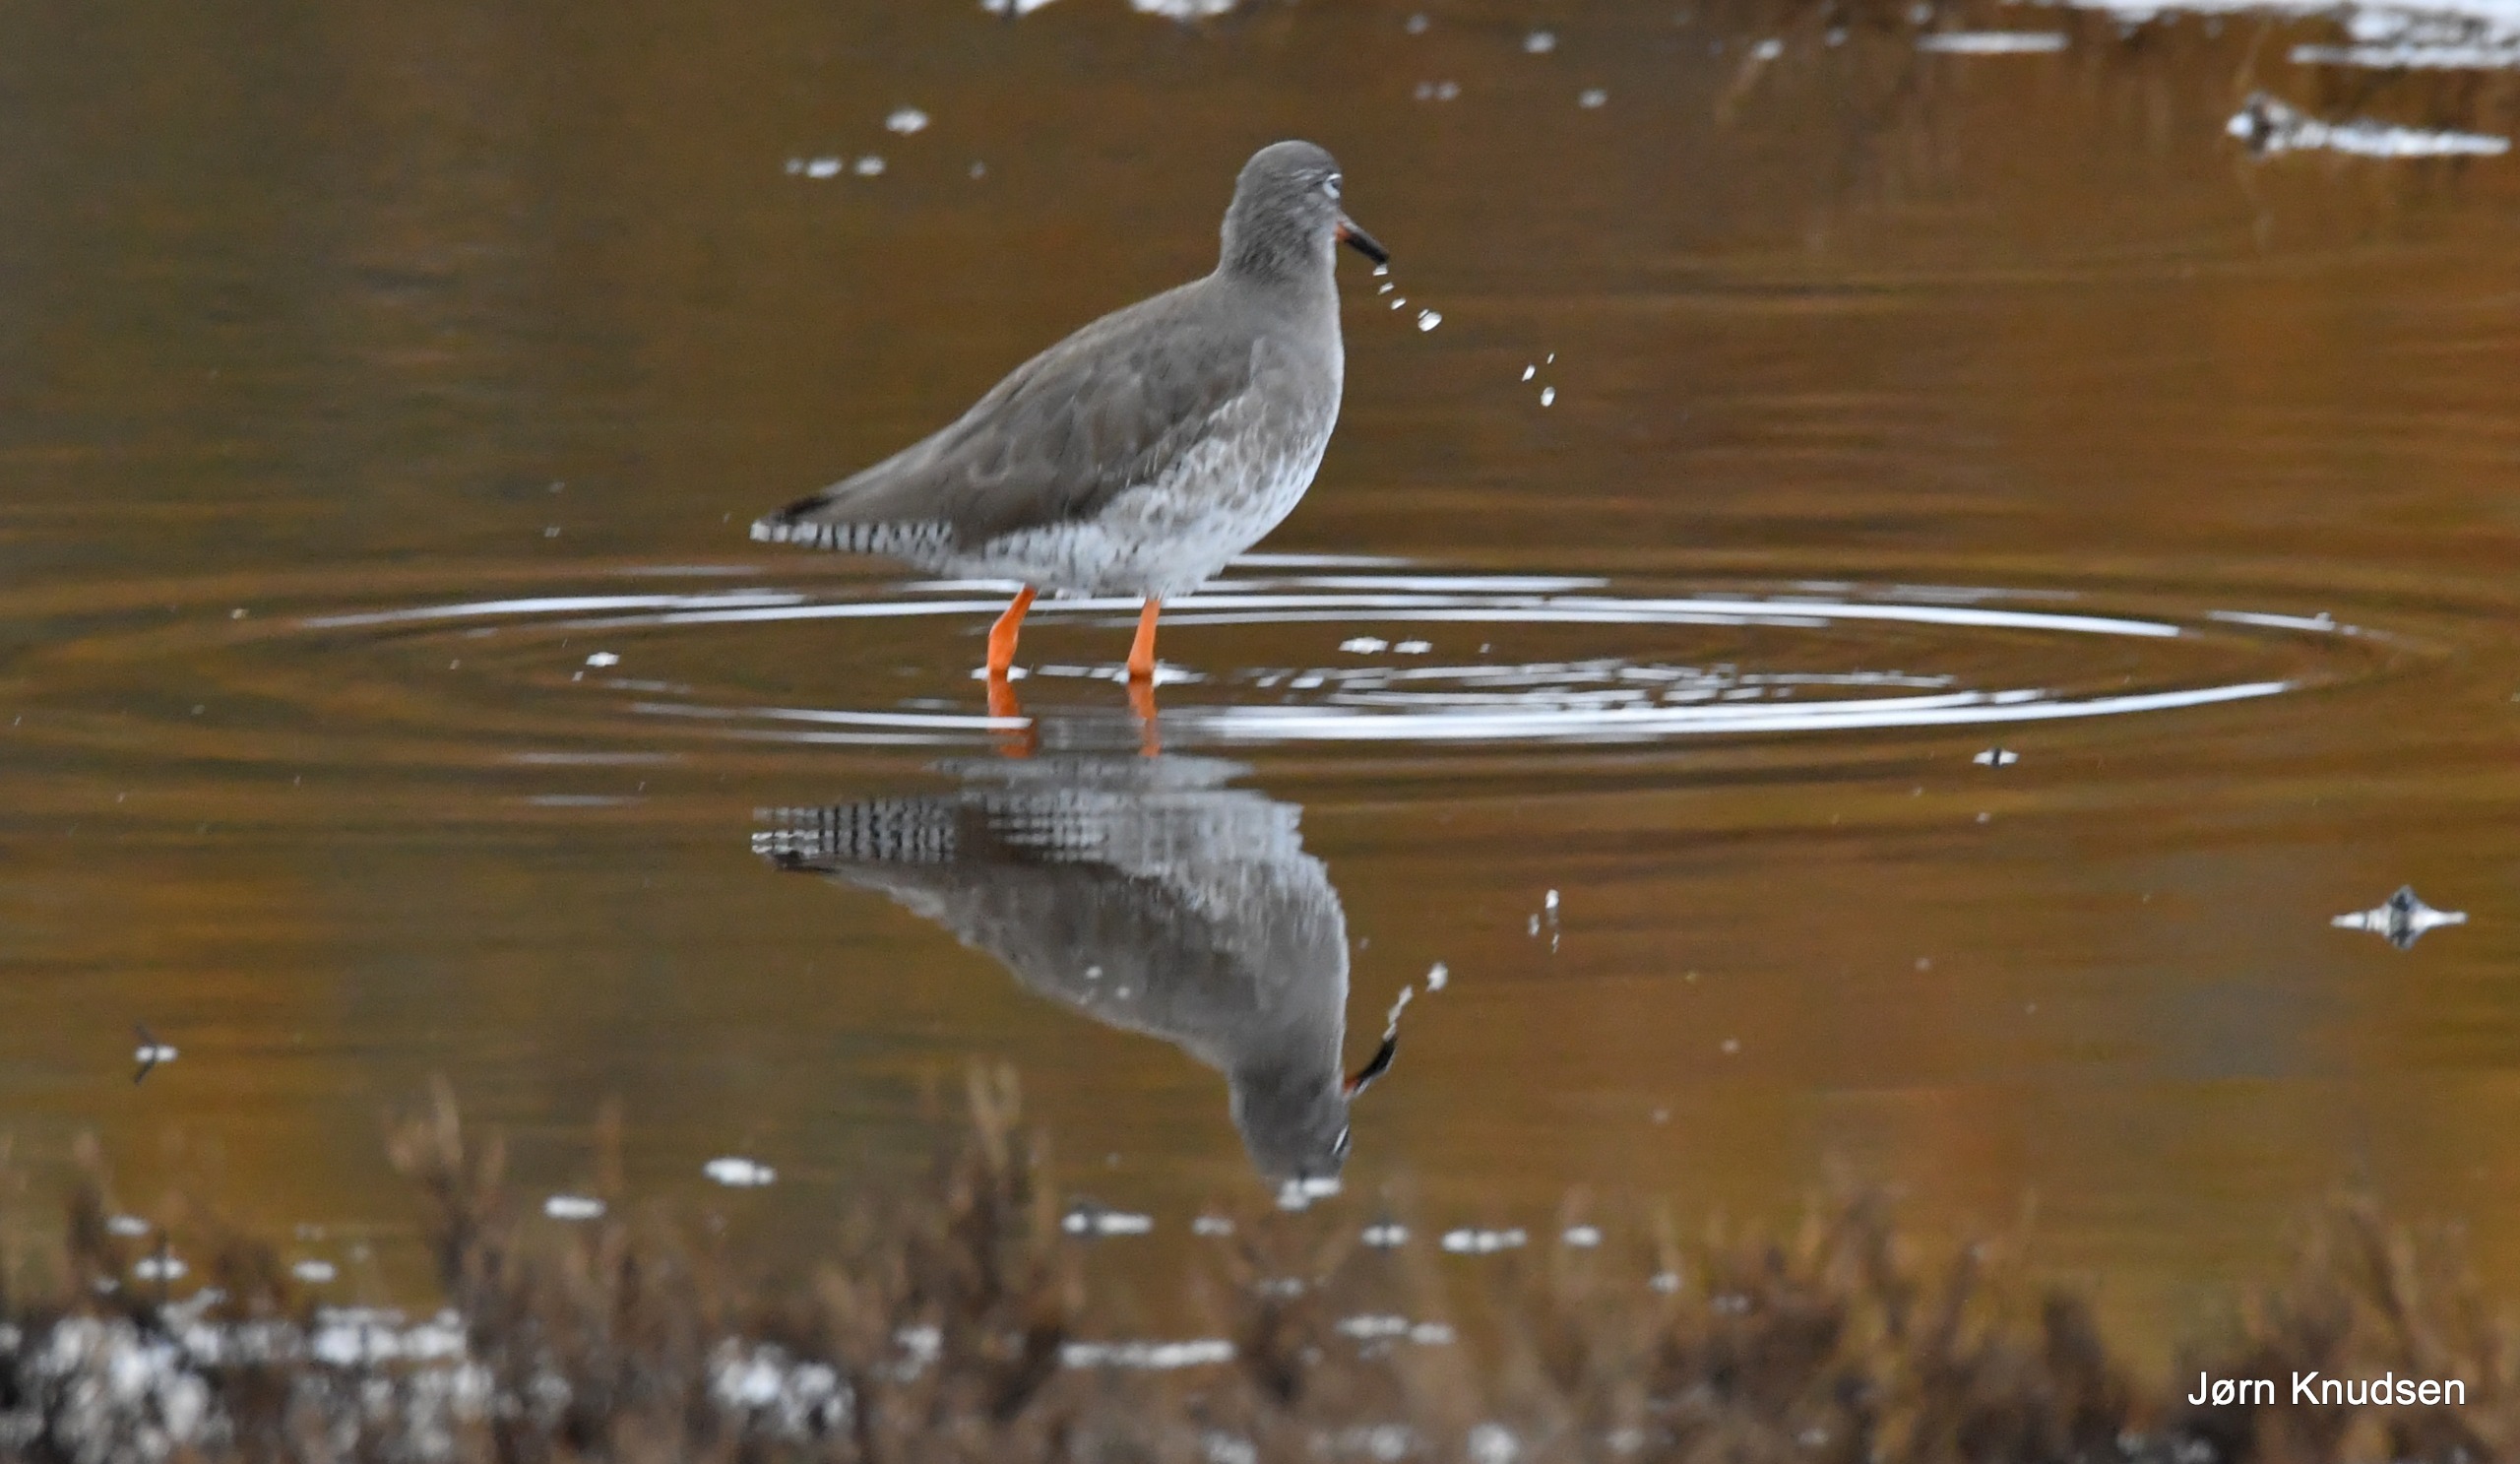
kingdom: Animalia
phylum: Chordata
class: Aves
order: Charadriiformes
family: Scolopacidae
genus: Tringa
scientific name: Tringa totanus
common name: Rødben
